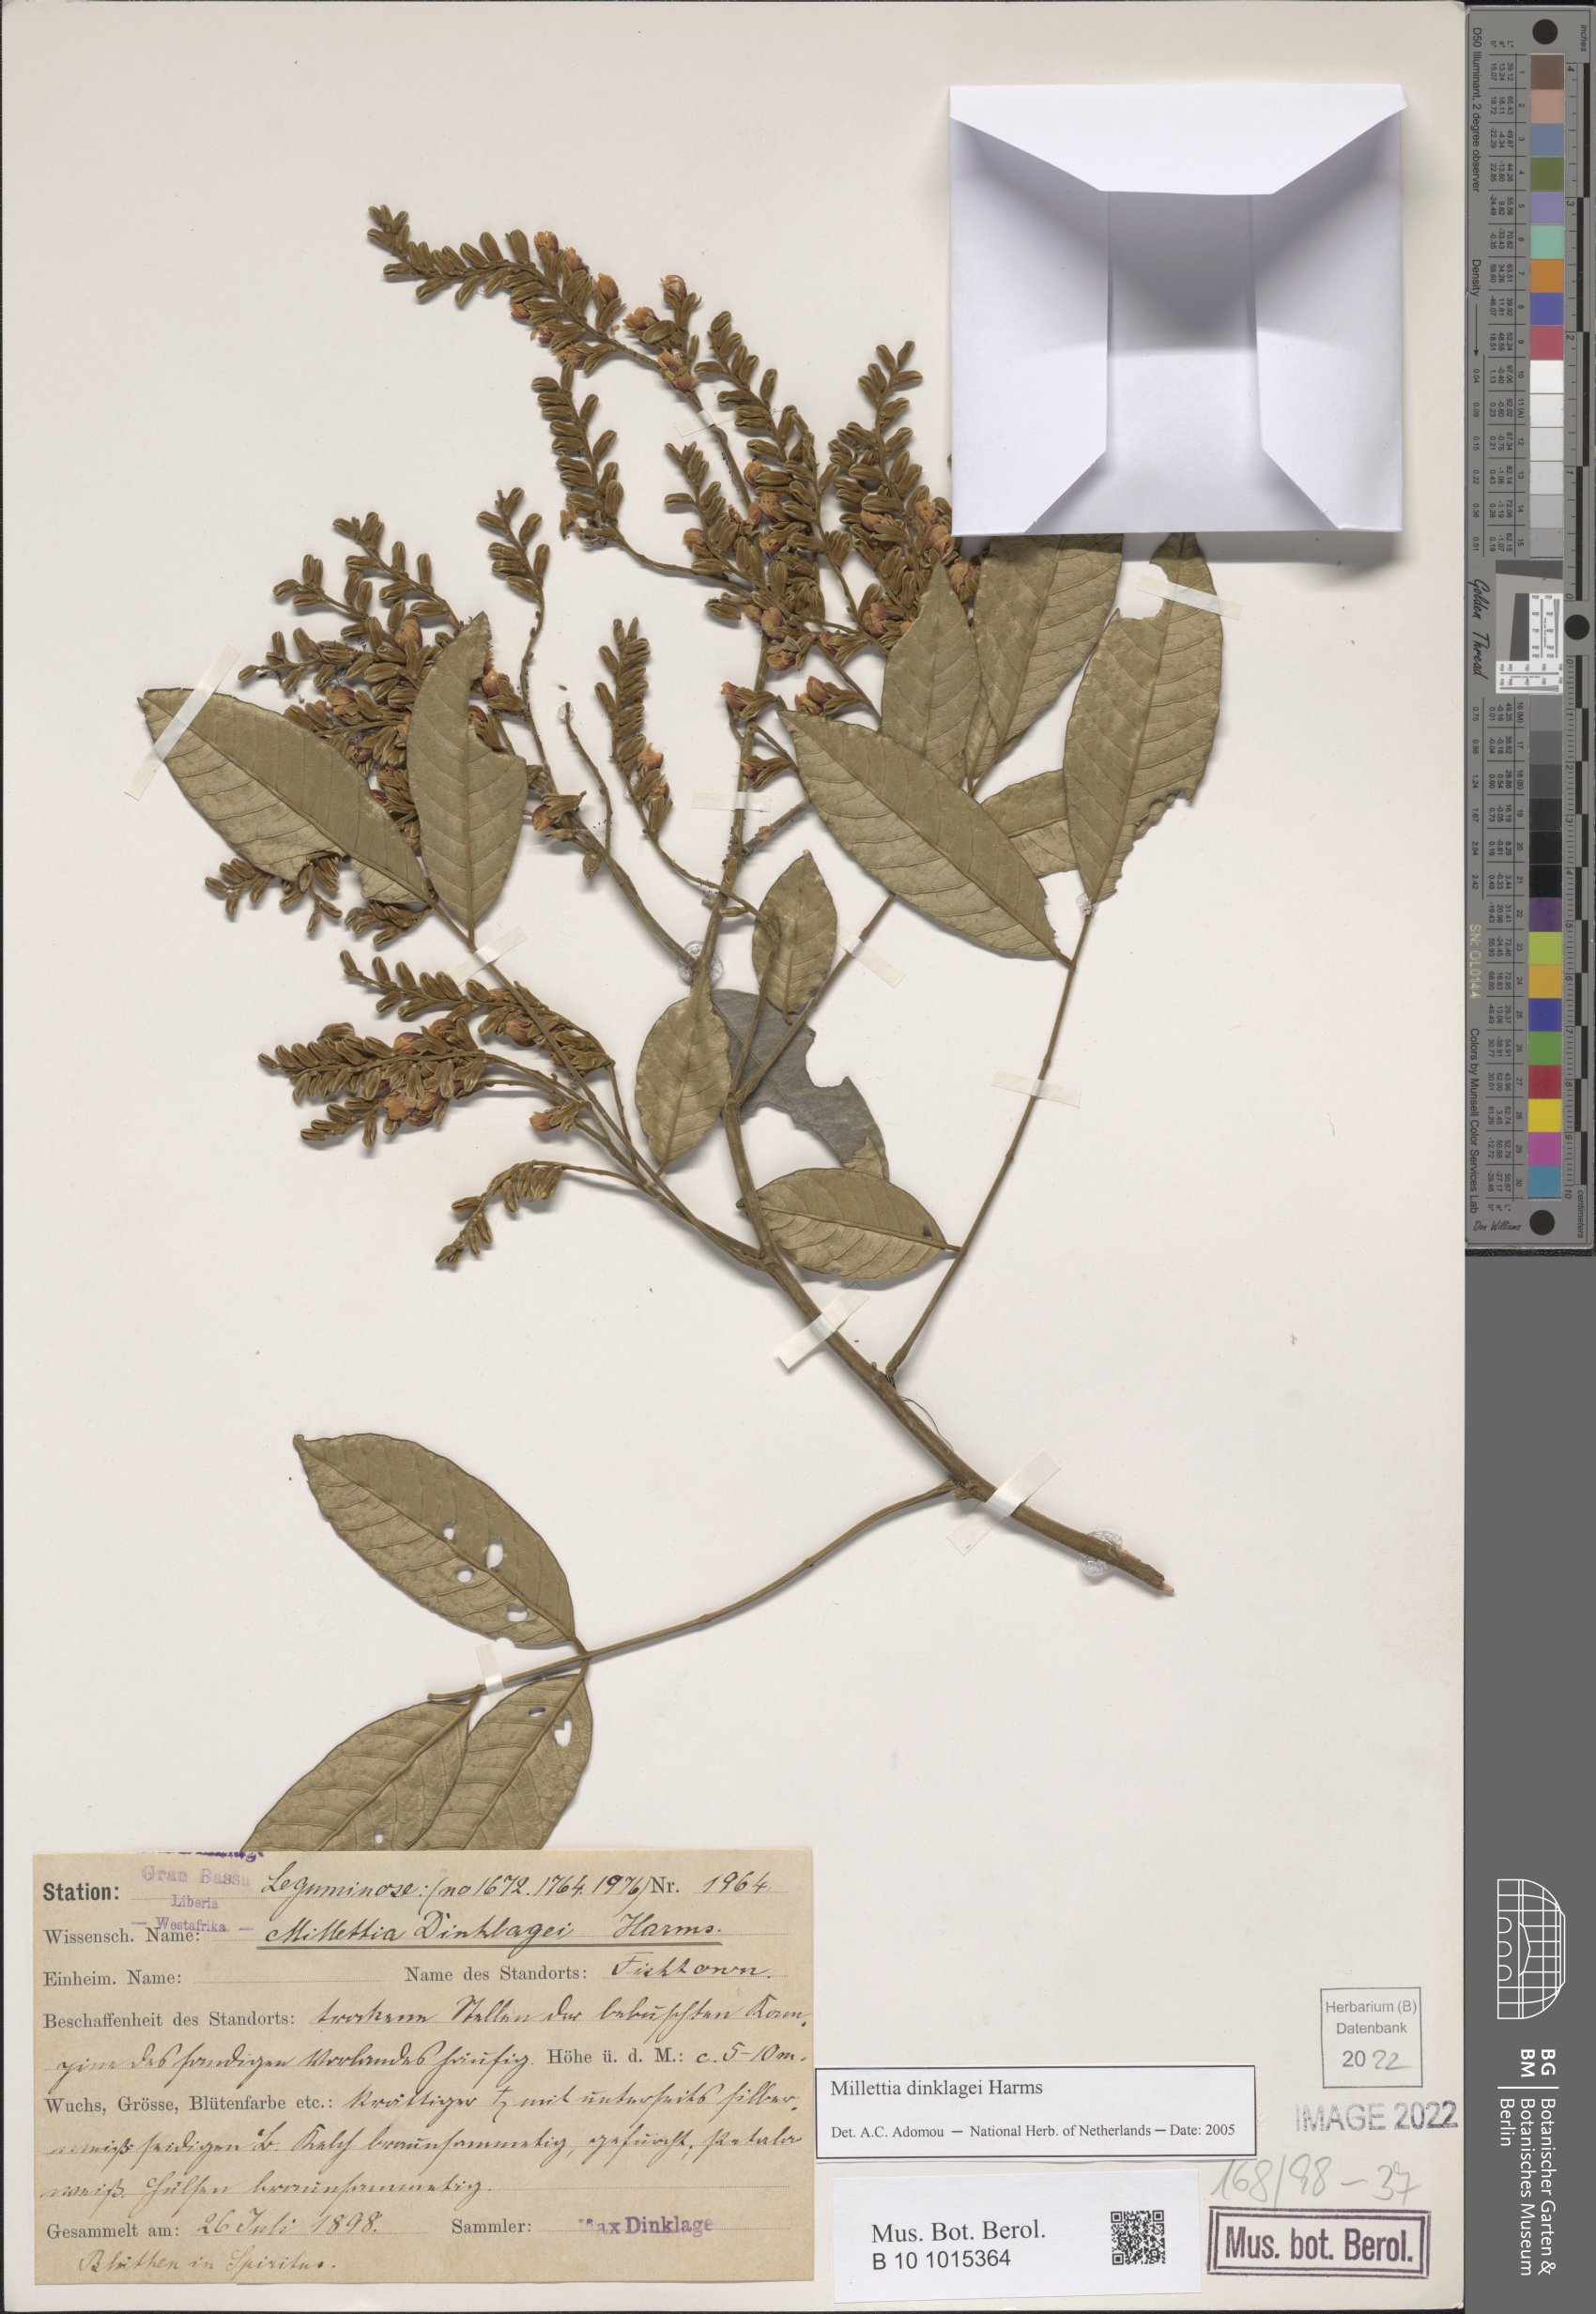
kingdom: Plantae
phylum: Tracheophyta
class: Magnoliopsida
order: Fabales
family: Fabaceae
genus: Millettia
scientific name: Millettia dinklagei
